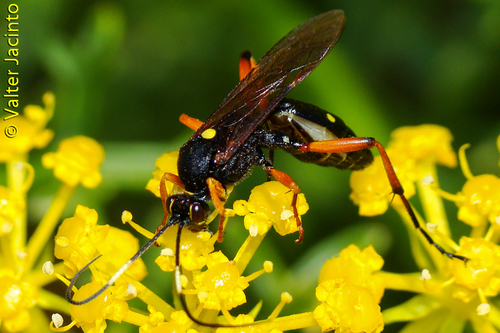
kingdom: Animalia
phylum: Arthropoda
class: Insecta
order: Hymenoptera
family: Ichneumonidae
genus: Diphyus
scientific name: Diphyus quadripunctorius
